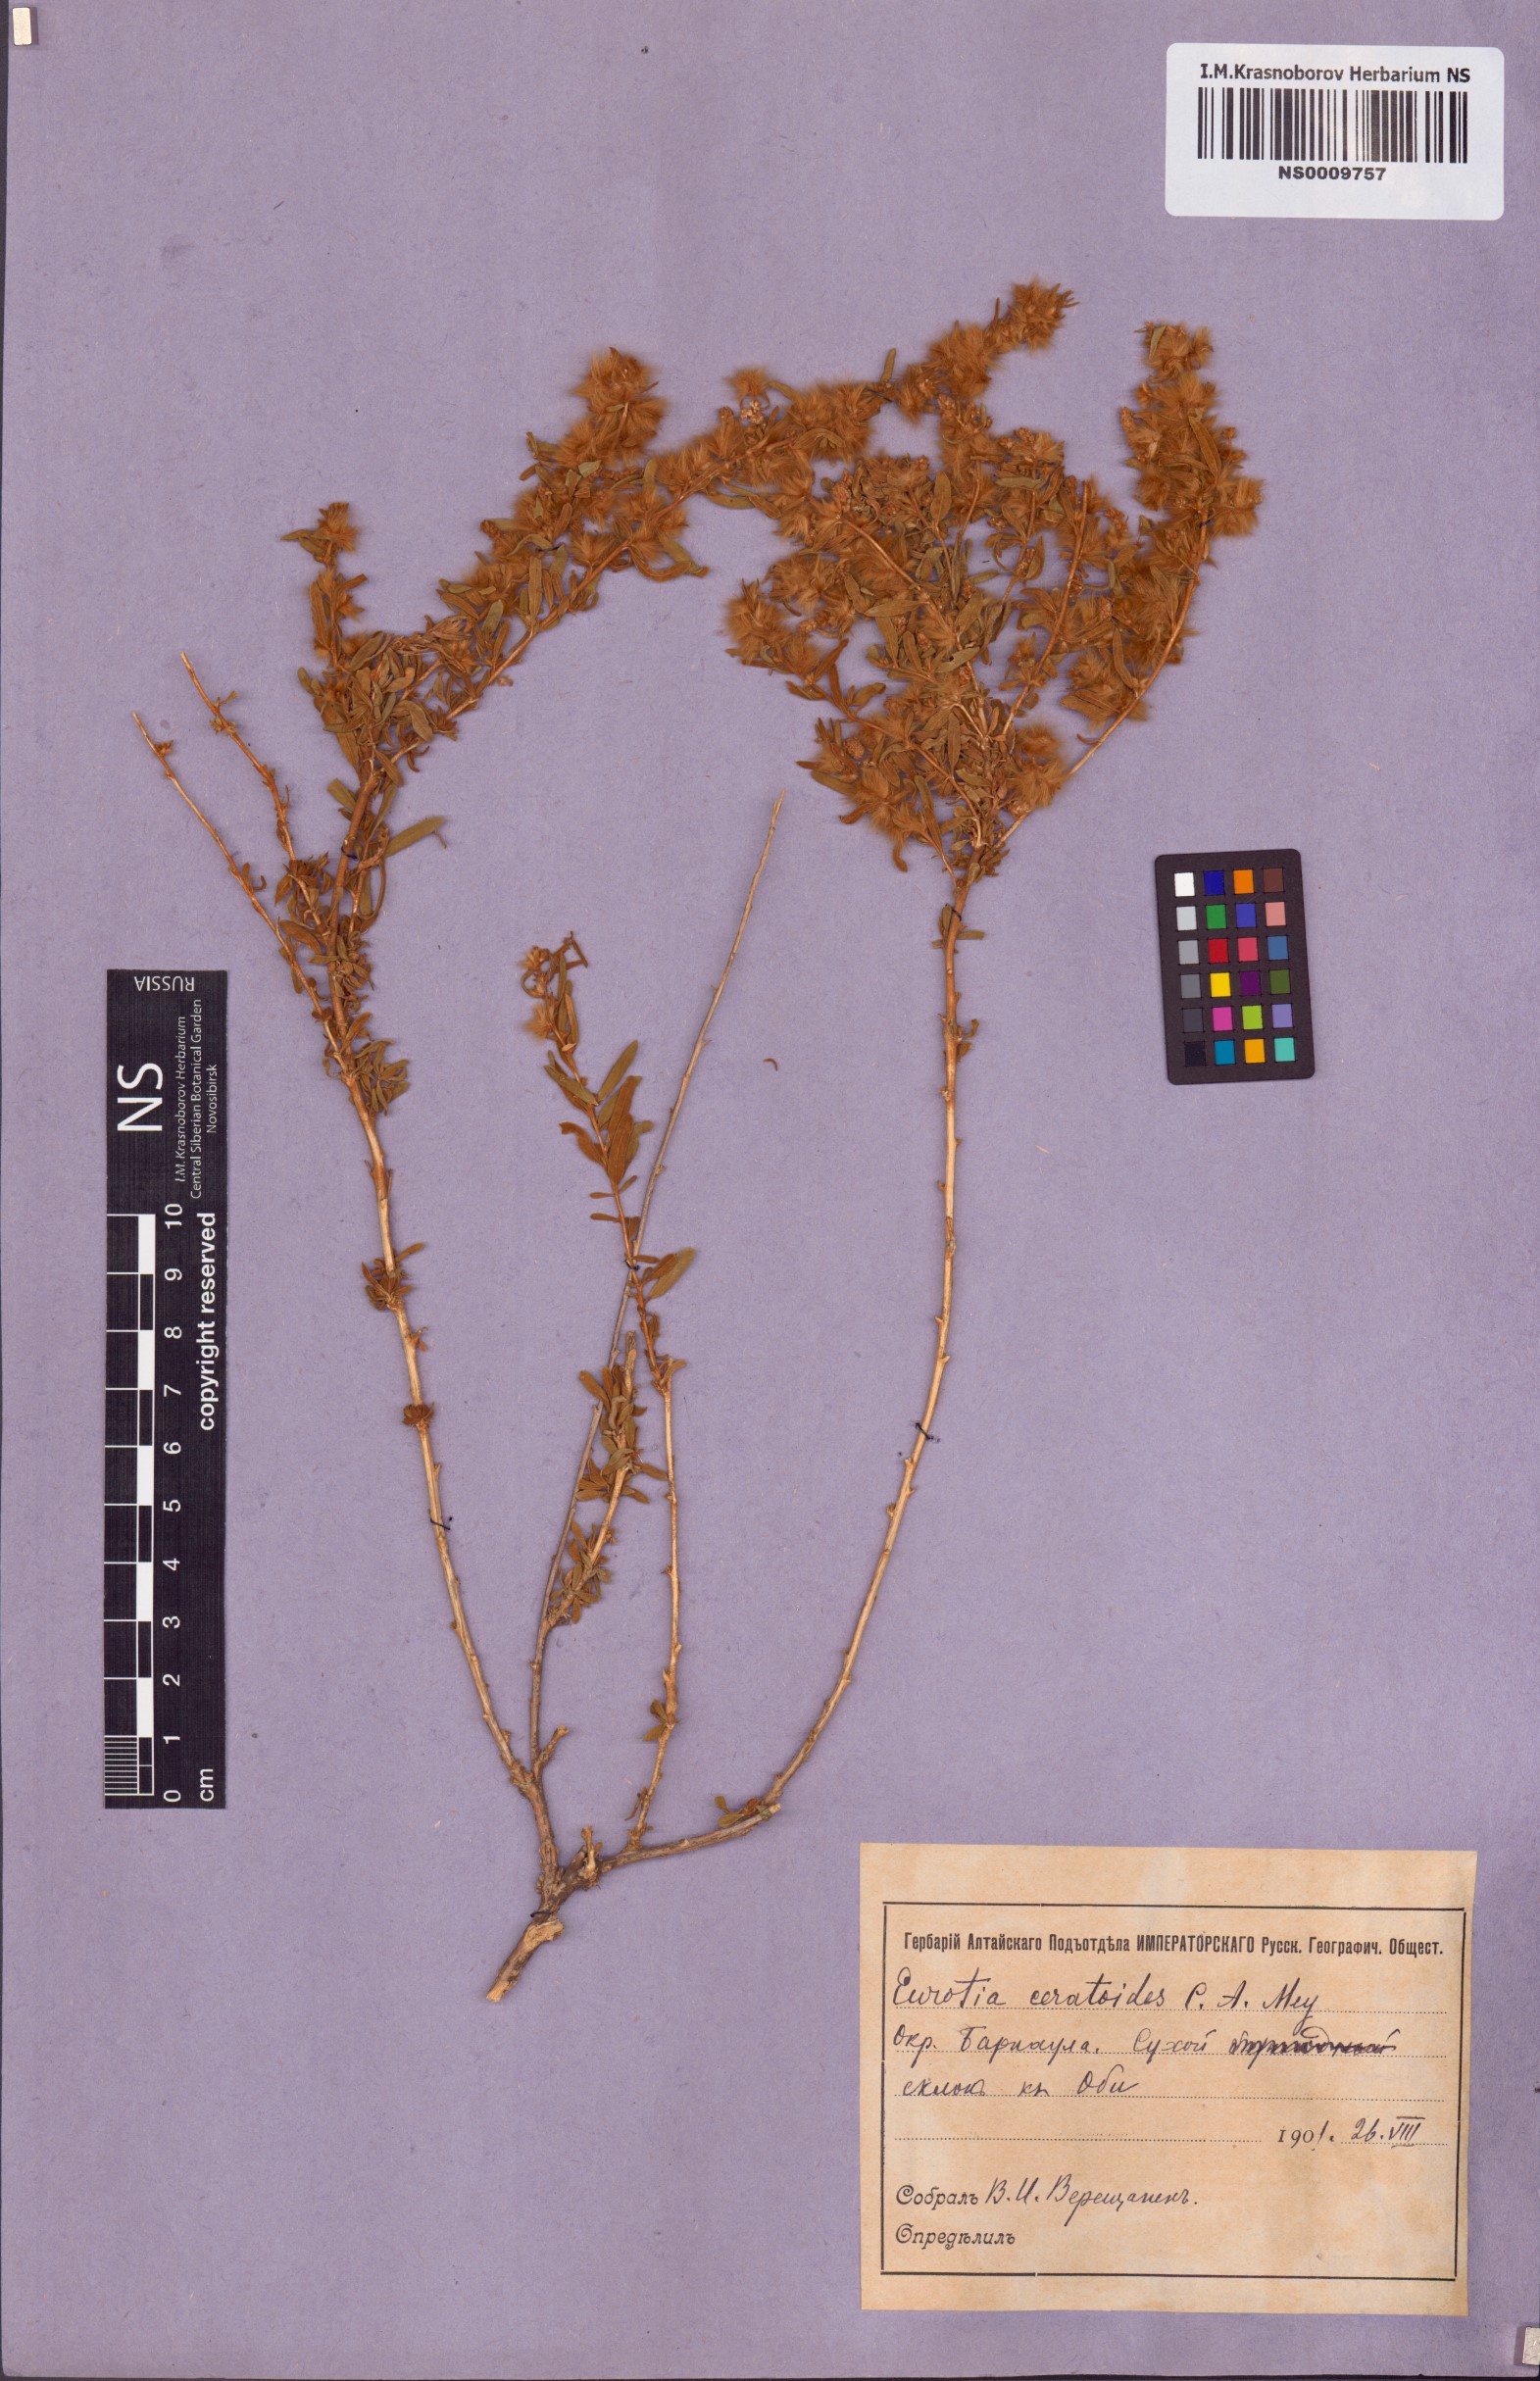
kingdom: Plantae
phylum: Tracheophyta
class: Magnoliopsida
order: Caryophyllales
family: Amaranthaceae
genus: Krascheninnikovia
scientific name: Krascheninnikovia ceratoides
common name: Pamirian winterfat
